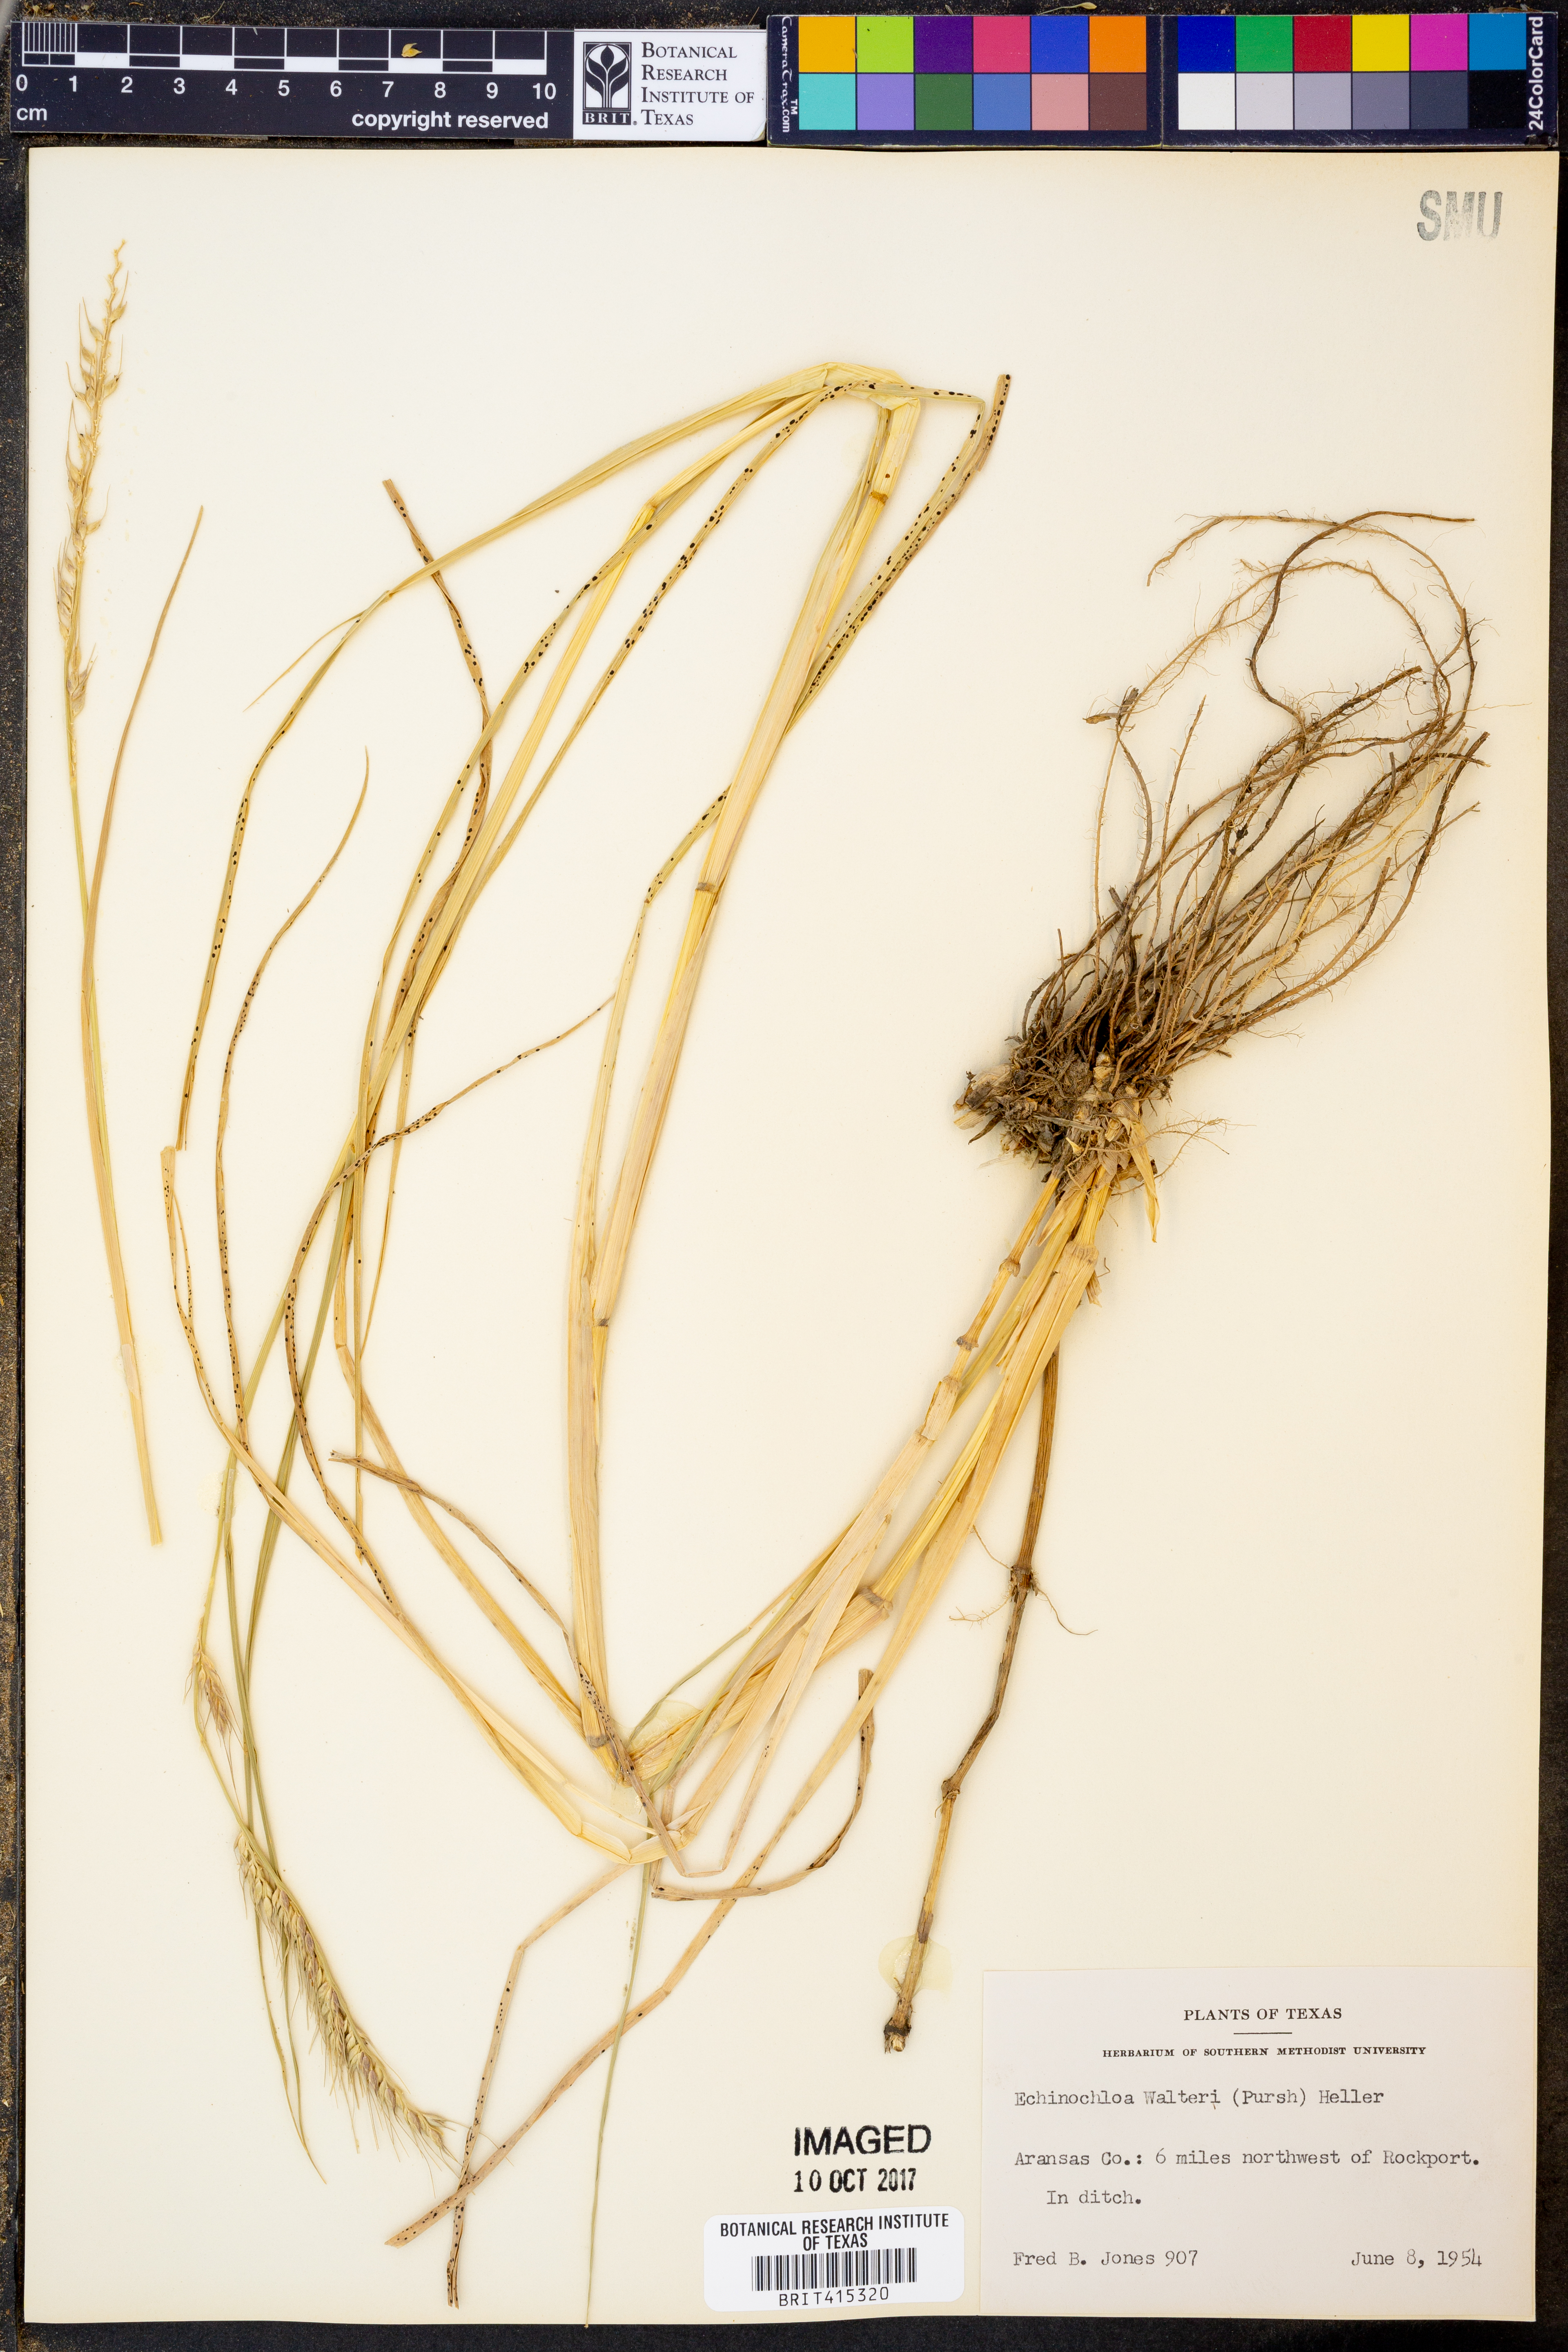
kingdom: Plantae
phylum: Tracheophyta
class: Liliopsida
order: Poales
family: Poaceae
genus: Echinochloa
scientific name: Echinochloa walteri
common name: Coast barnyard grass
